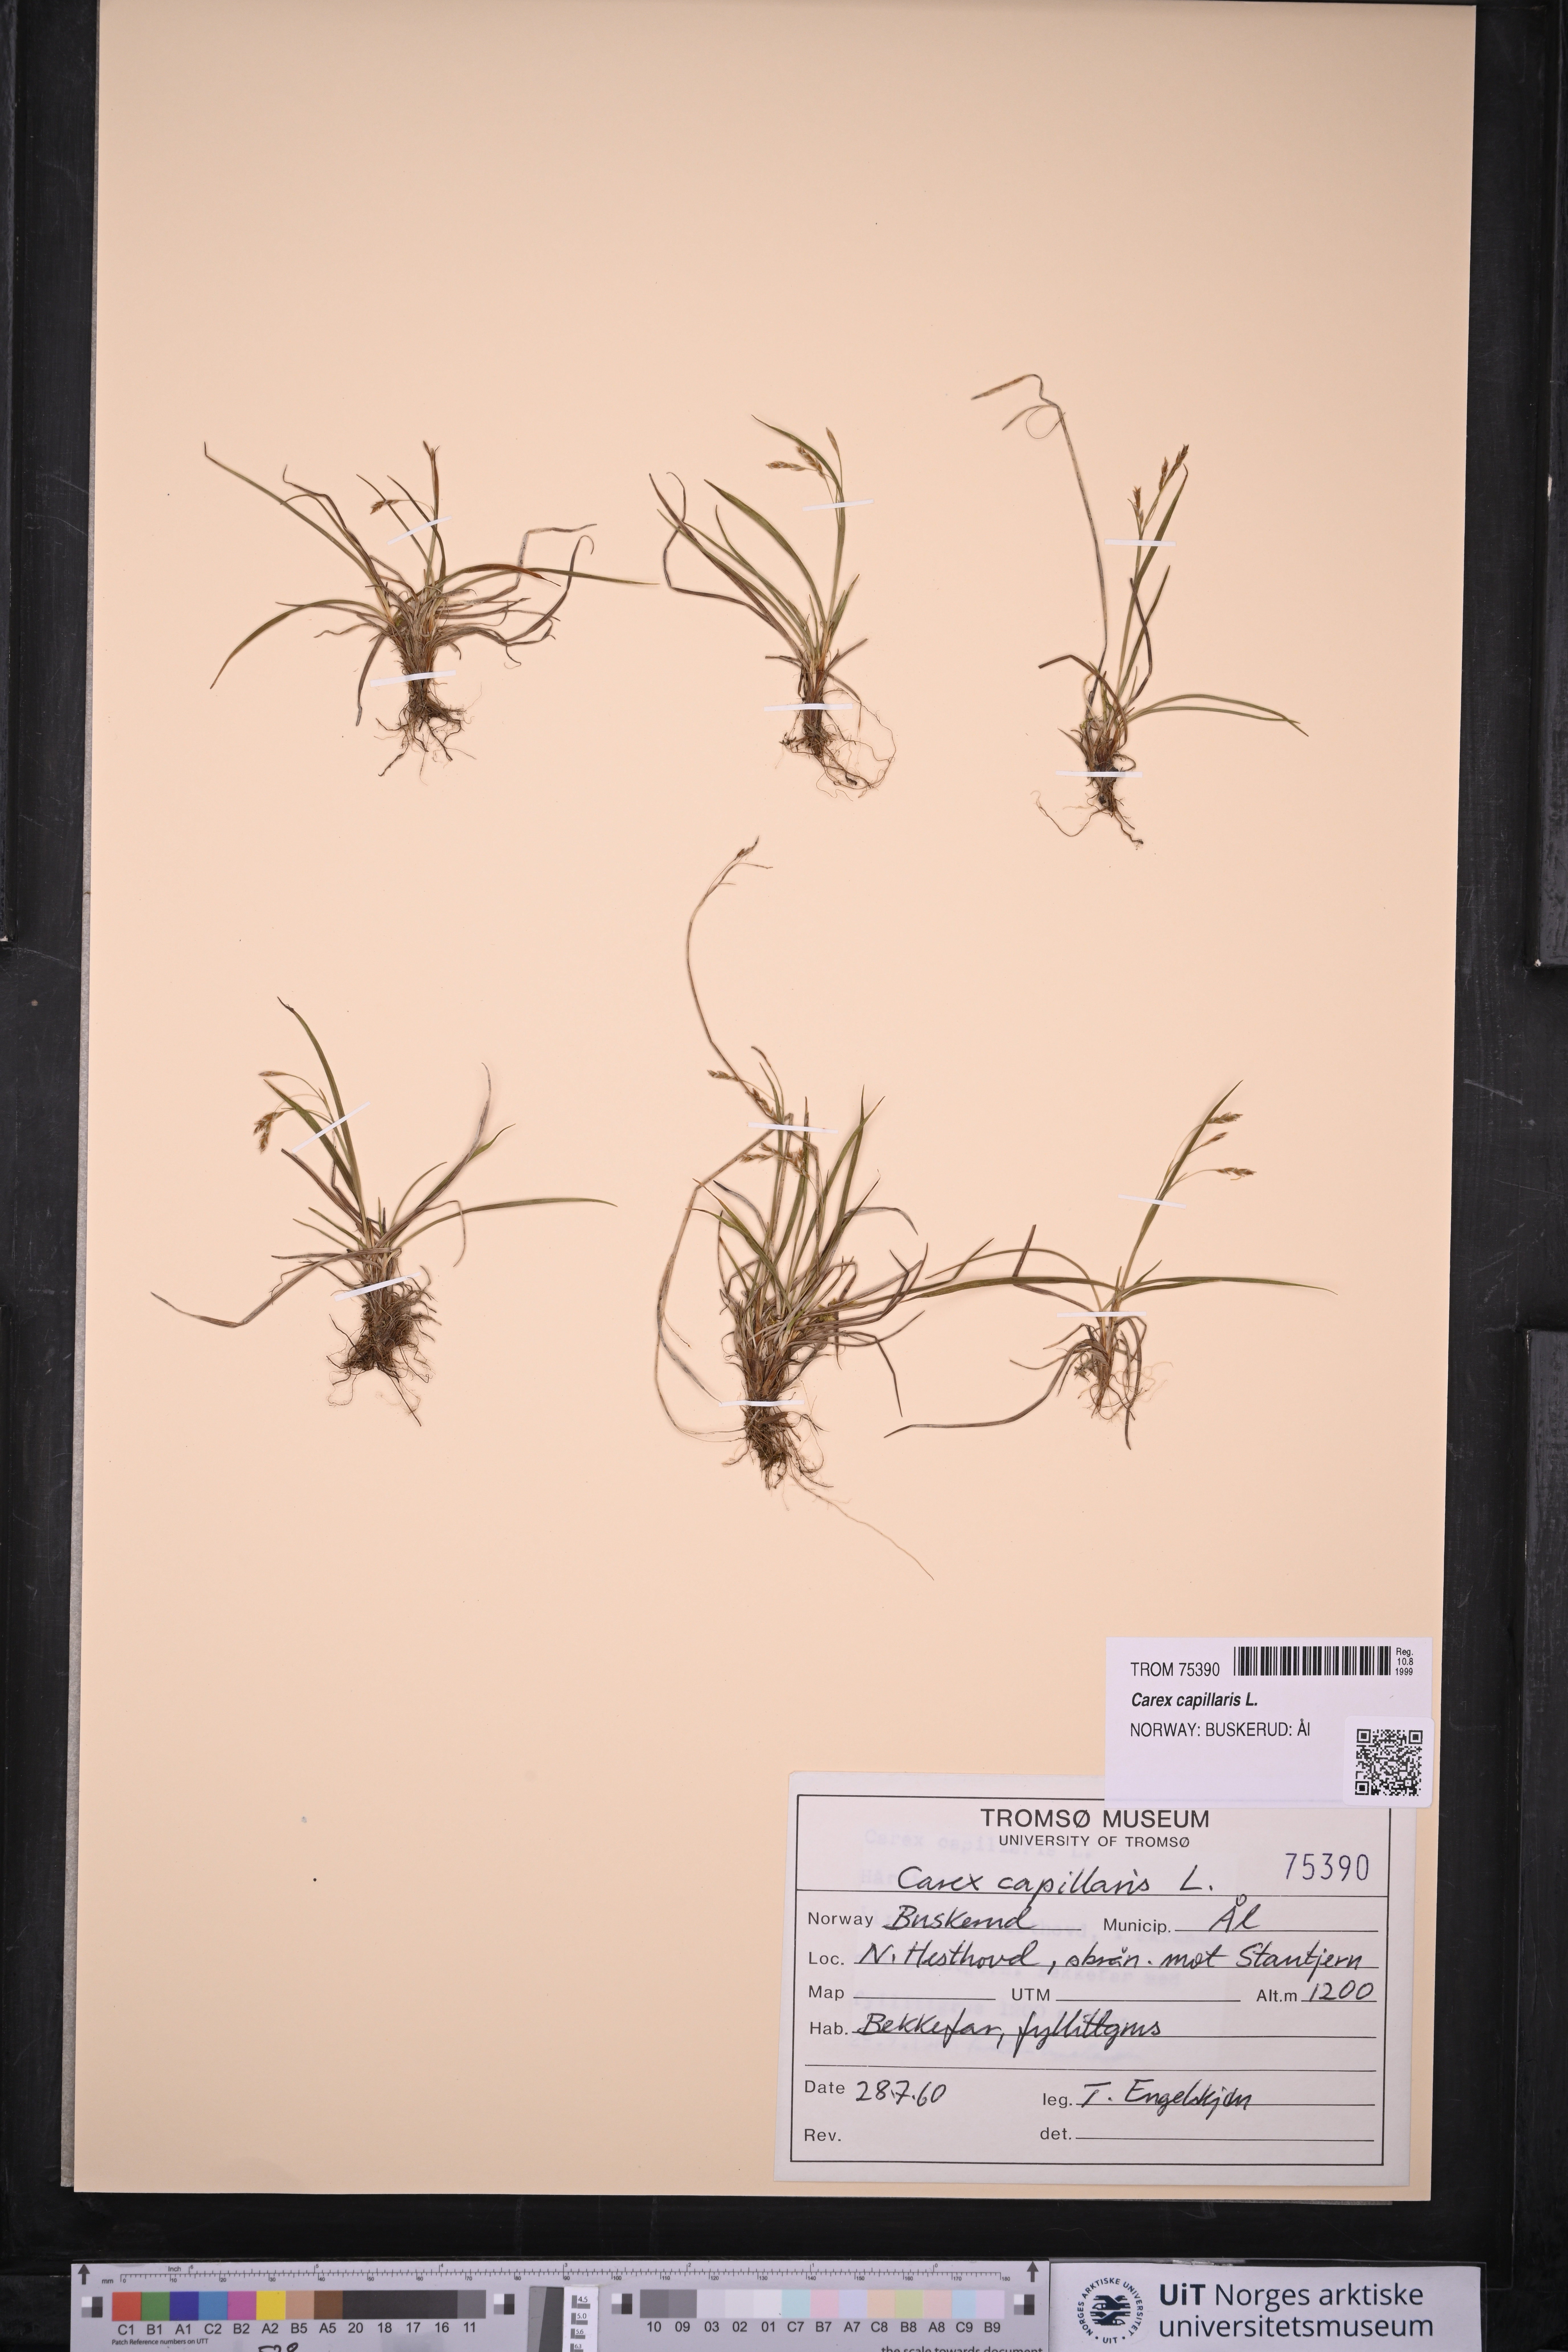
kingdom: Plantae
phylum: Tracheophyta
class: Liliopsida
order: Poales
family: Cyperaceae
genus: Carex
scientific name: Carex capillaris
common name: Hair sedge
